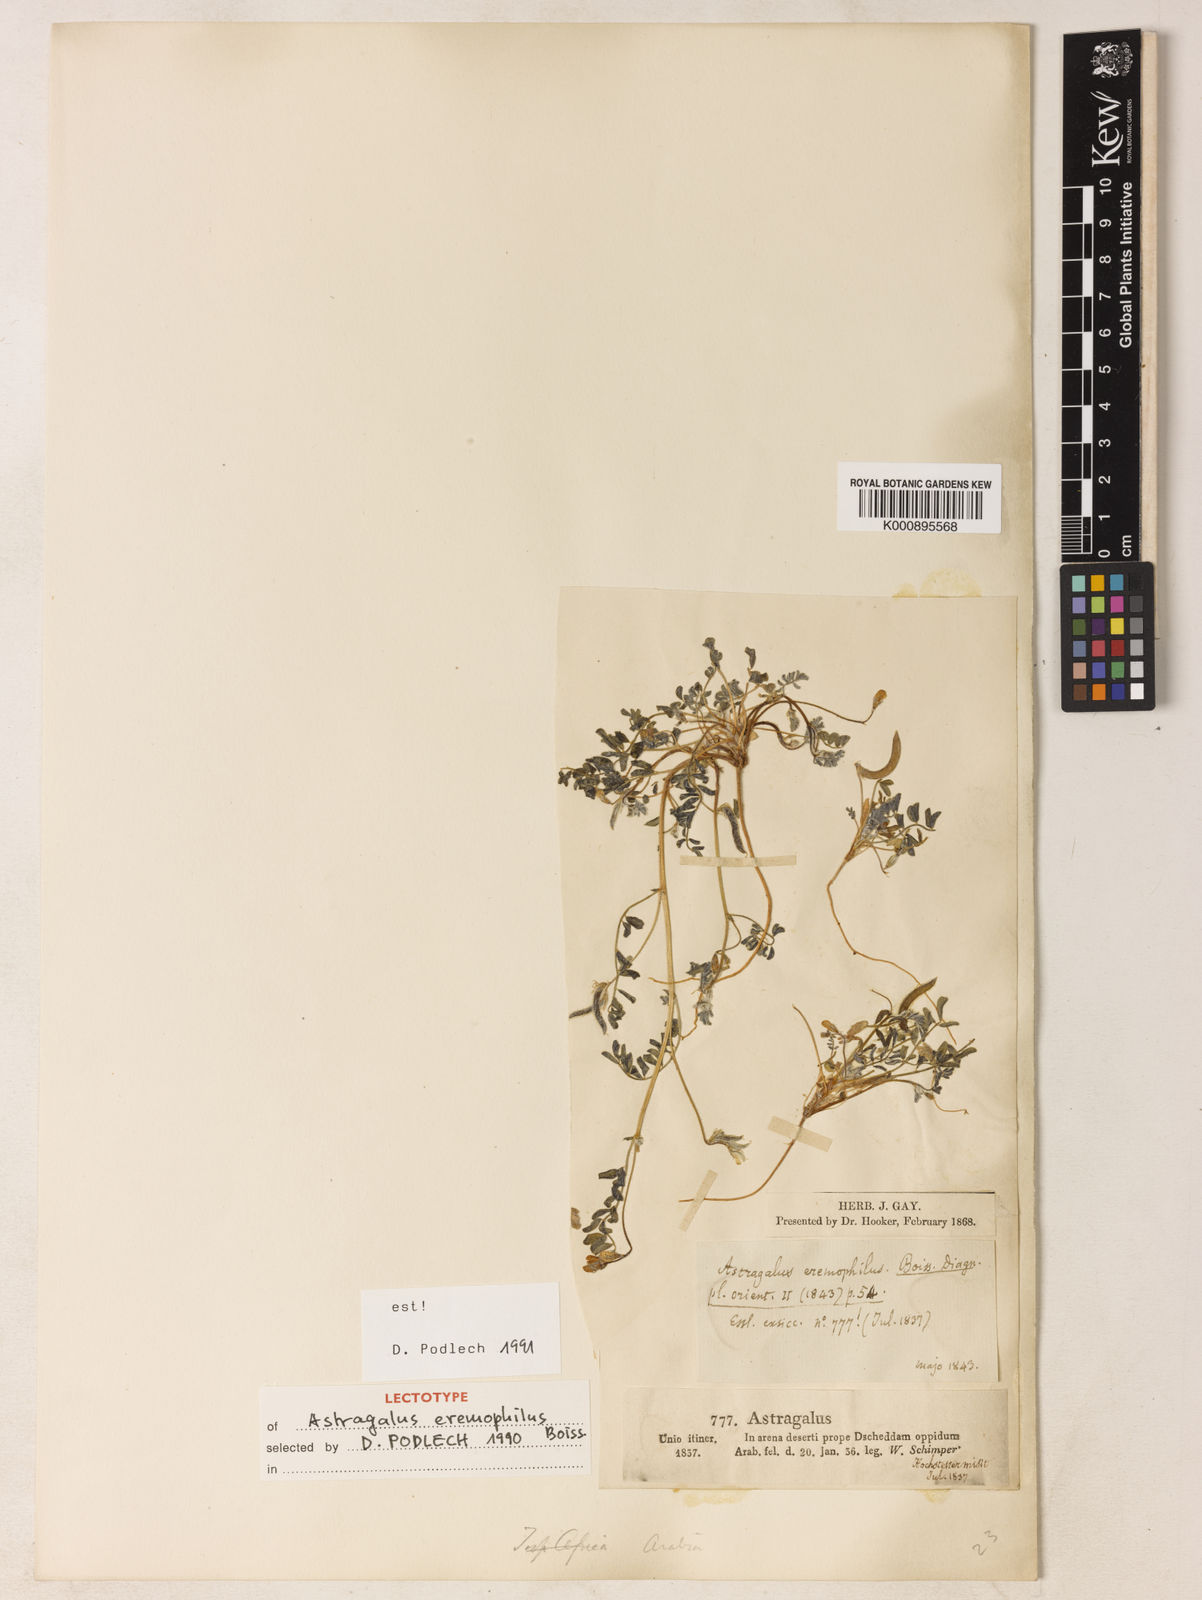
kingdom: Plantae
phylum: Tracheophyta
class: Magnoliopsida
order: Fabales
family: Fabaceae
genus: Astragalus
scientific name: Astragalus eremophilus
